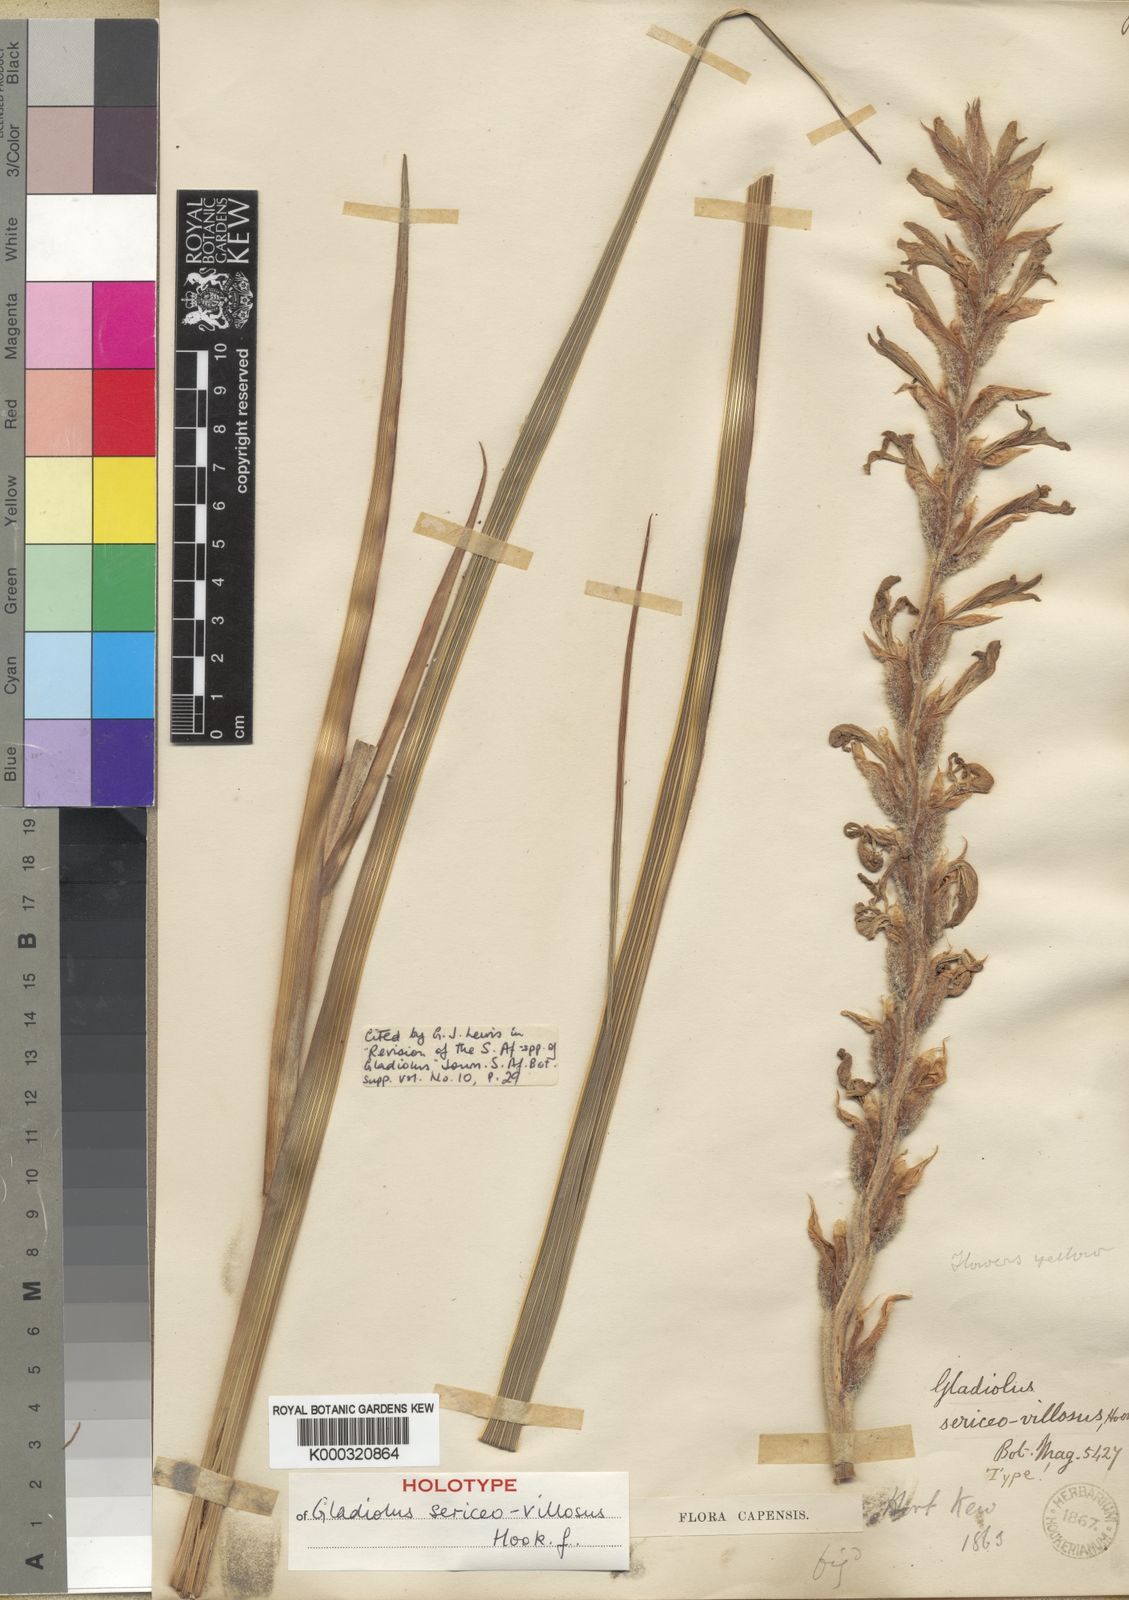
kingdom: Plantae
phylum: Tracheophyta
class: Liliopsida
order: Asparagales
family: Iridaceae
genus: Gladiolus
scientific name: Gladiolus sericeovillosus
